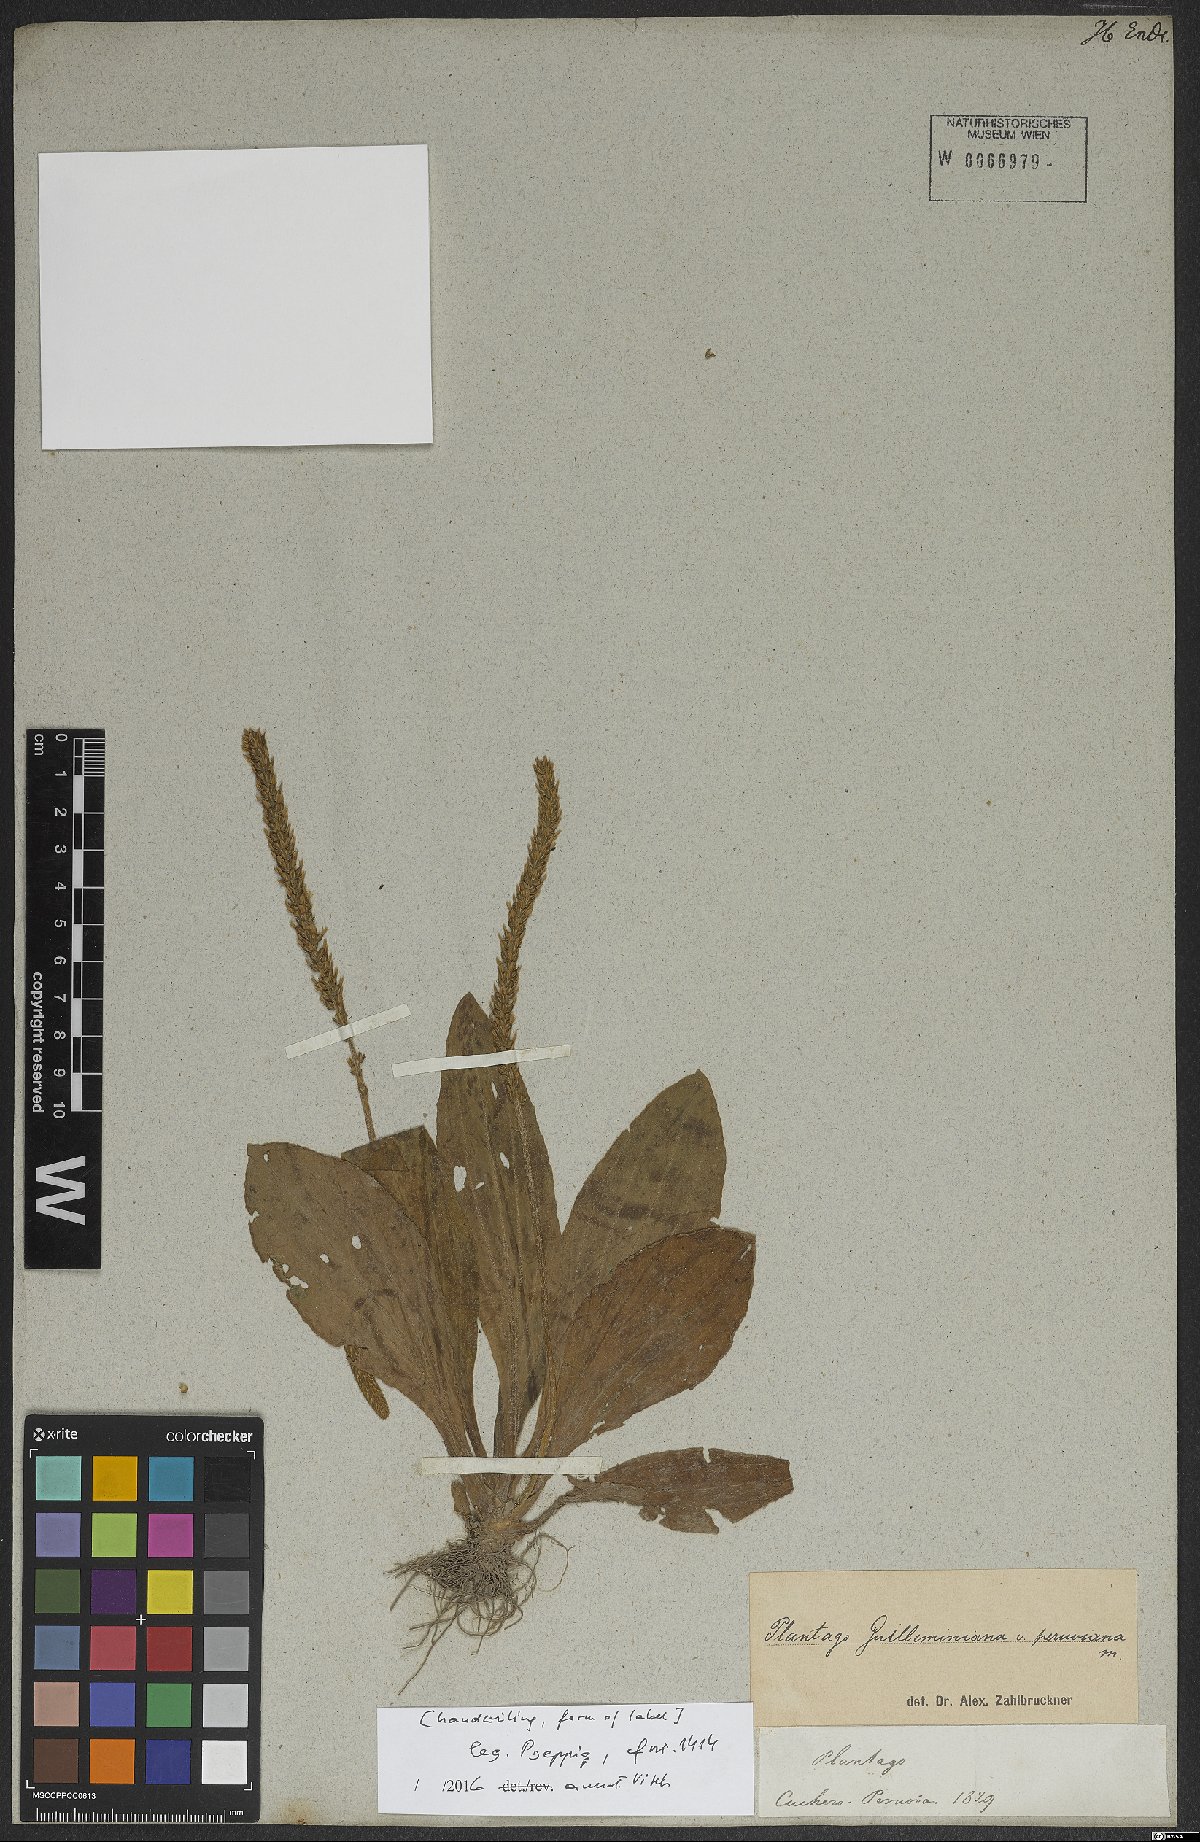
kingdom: Plantae
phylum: Tracheophyta
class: Magnoliopsida
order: Lamiales
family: Plantaginaceae
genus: Plantago
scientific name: Plantago guilleminiana
